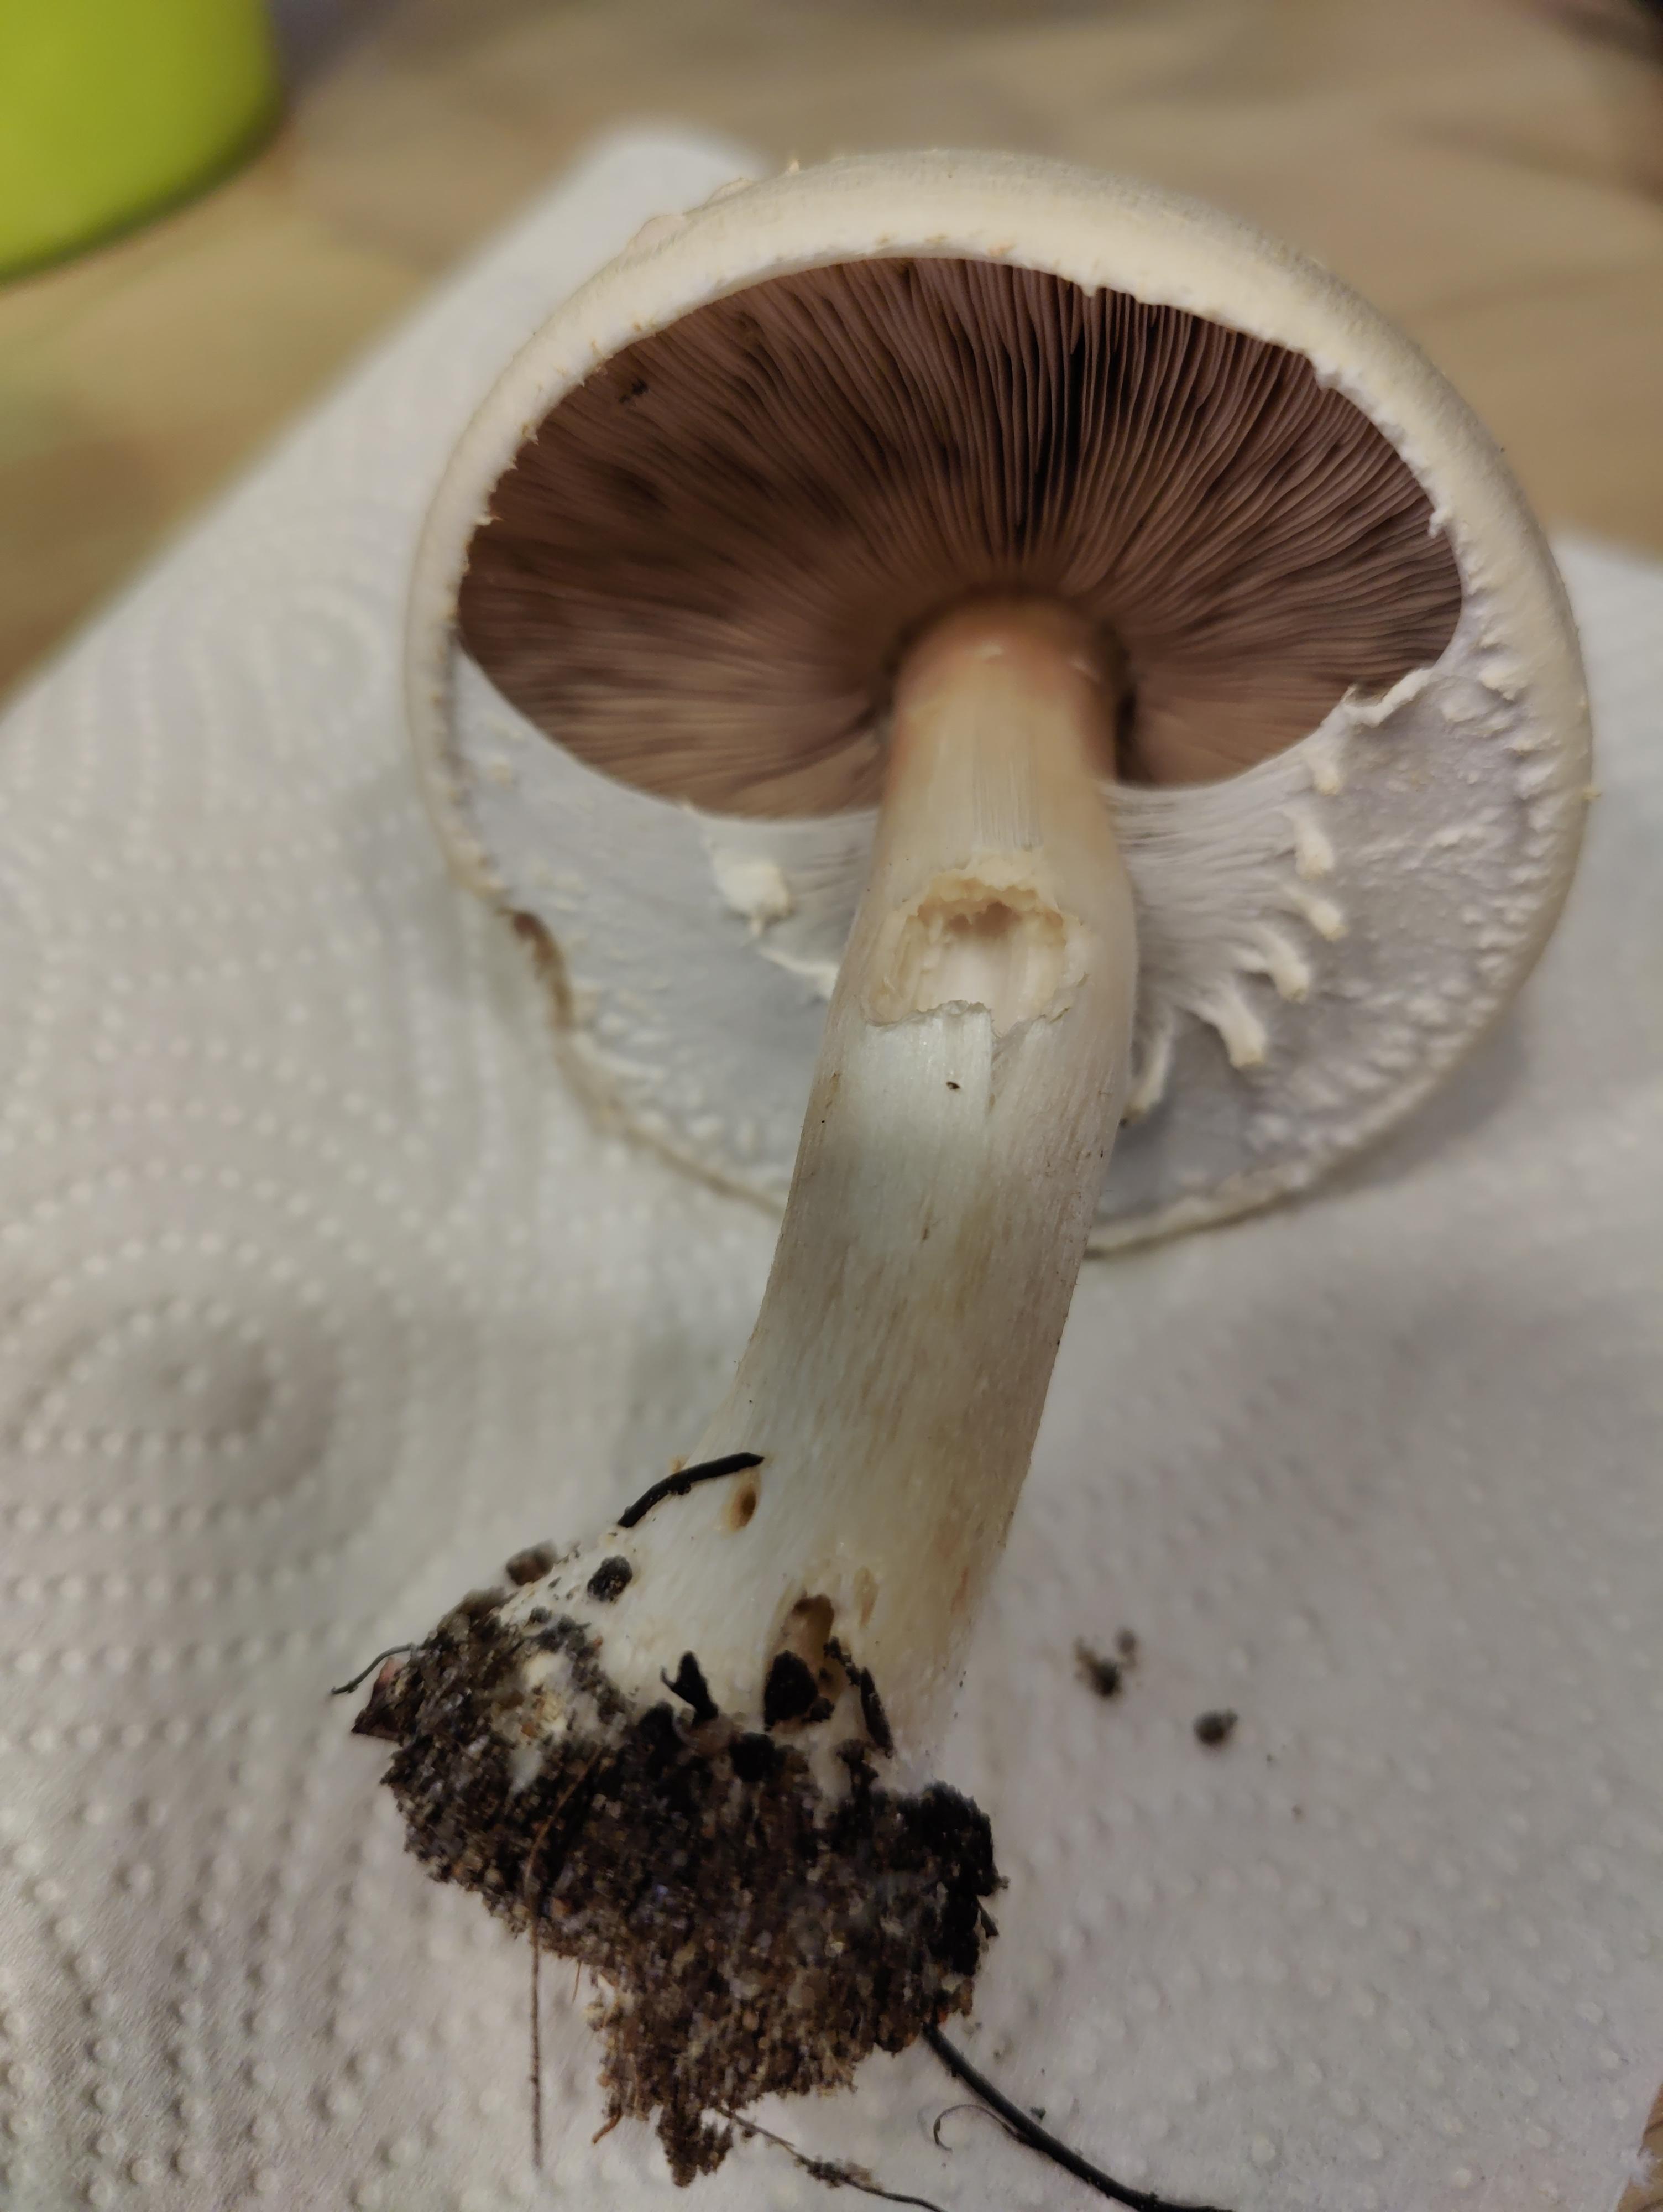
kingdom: Fungi
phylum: Basidiomycota
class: Agaricomycetes
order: Agaricales
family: Agaricaceae
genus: Agaricus
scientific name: Agaricus
